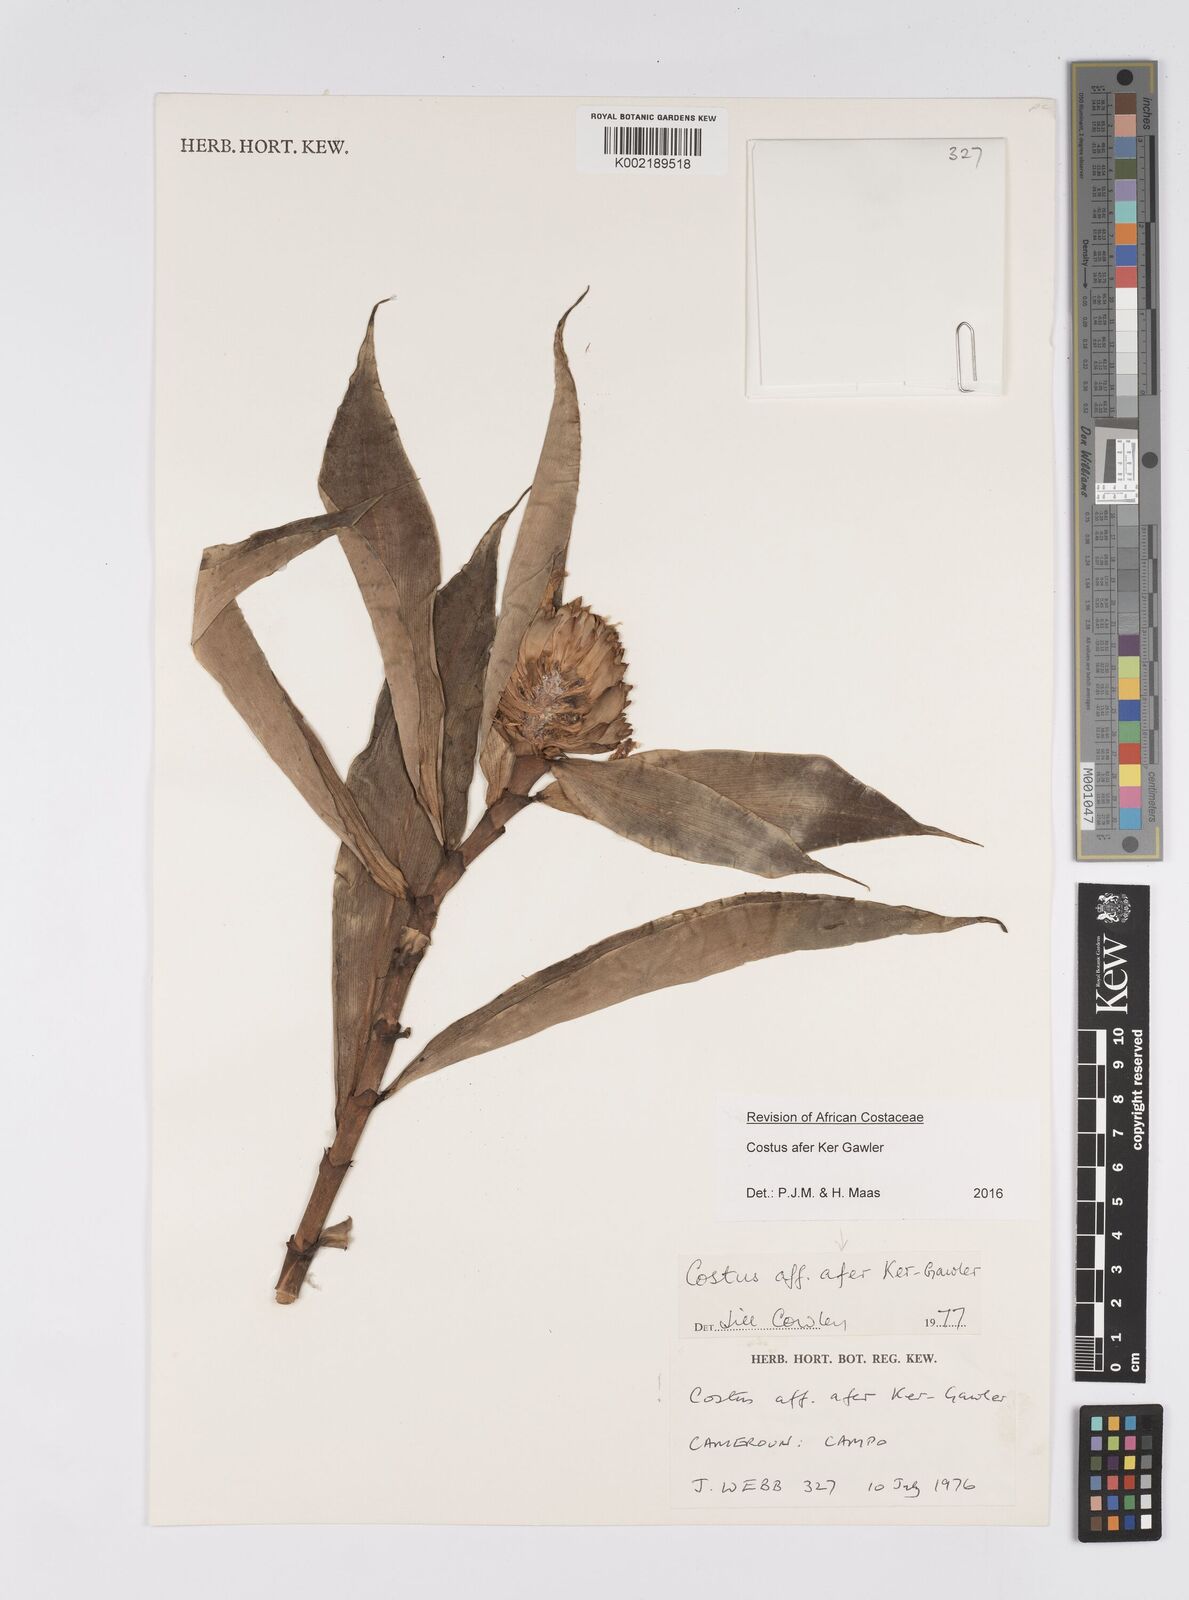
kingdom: Plantae
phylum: Tracheophyta
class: Liliopsida
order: Zingiberales
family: Costaceae
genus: Costus
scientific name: Costus afer
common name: Spiral-ginger
